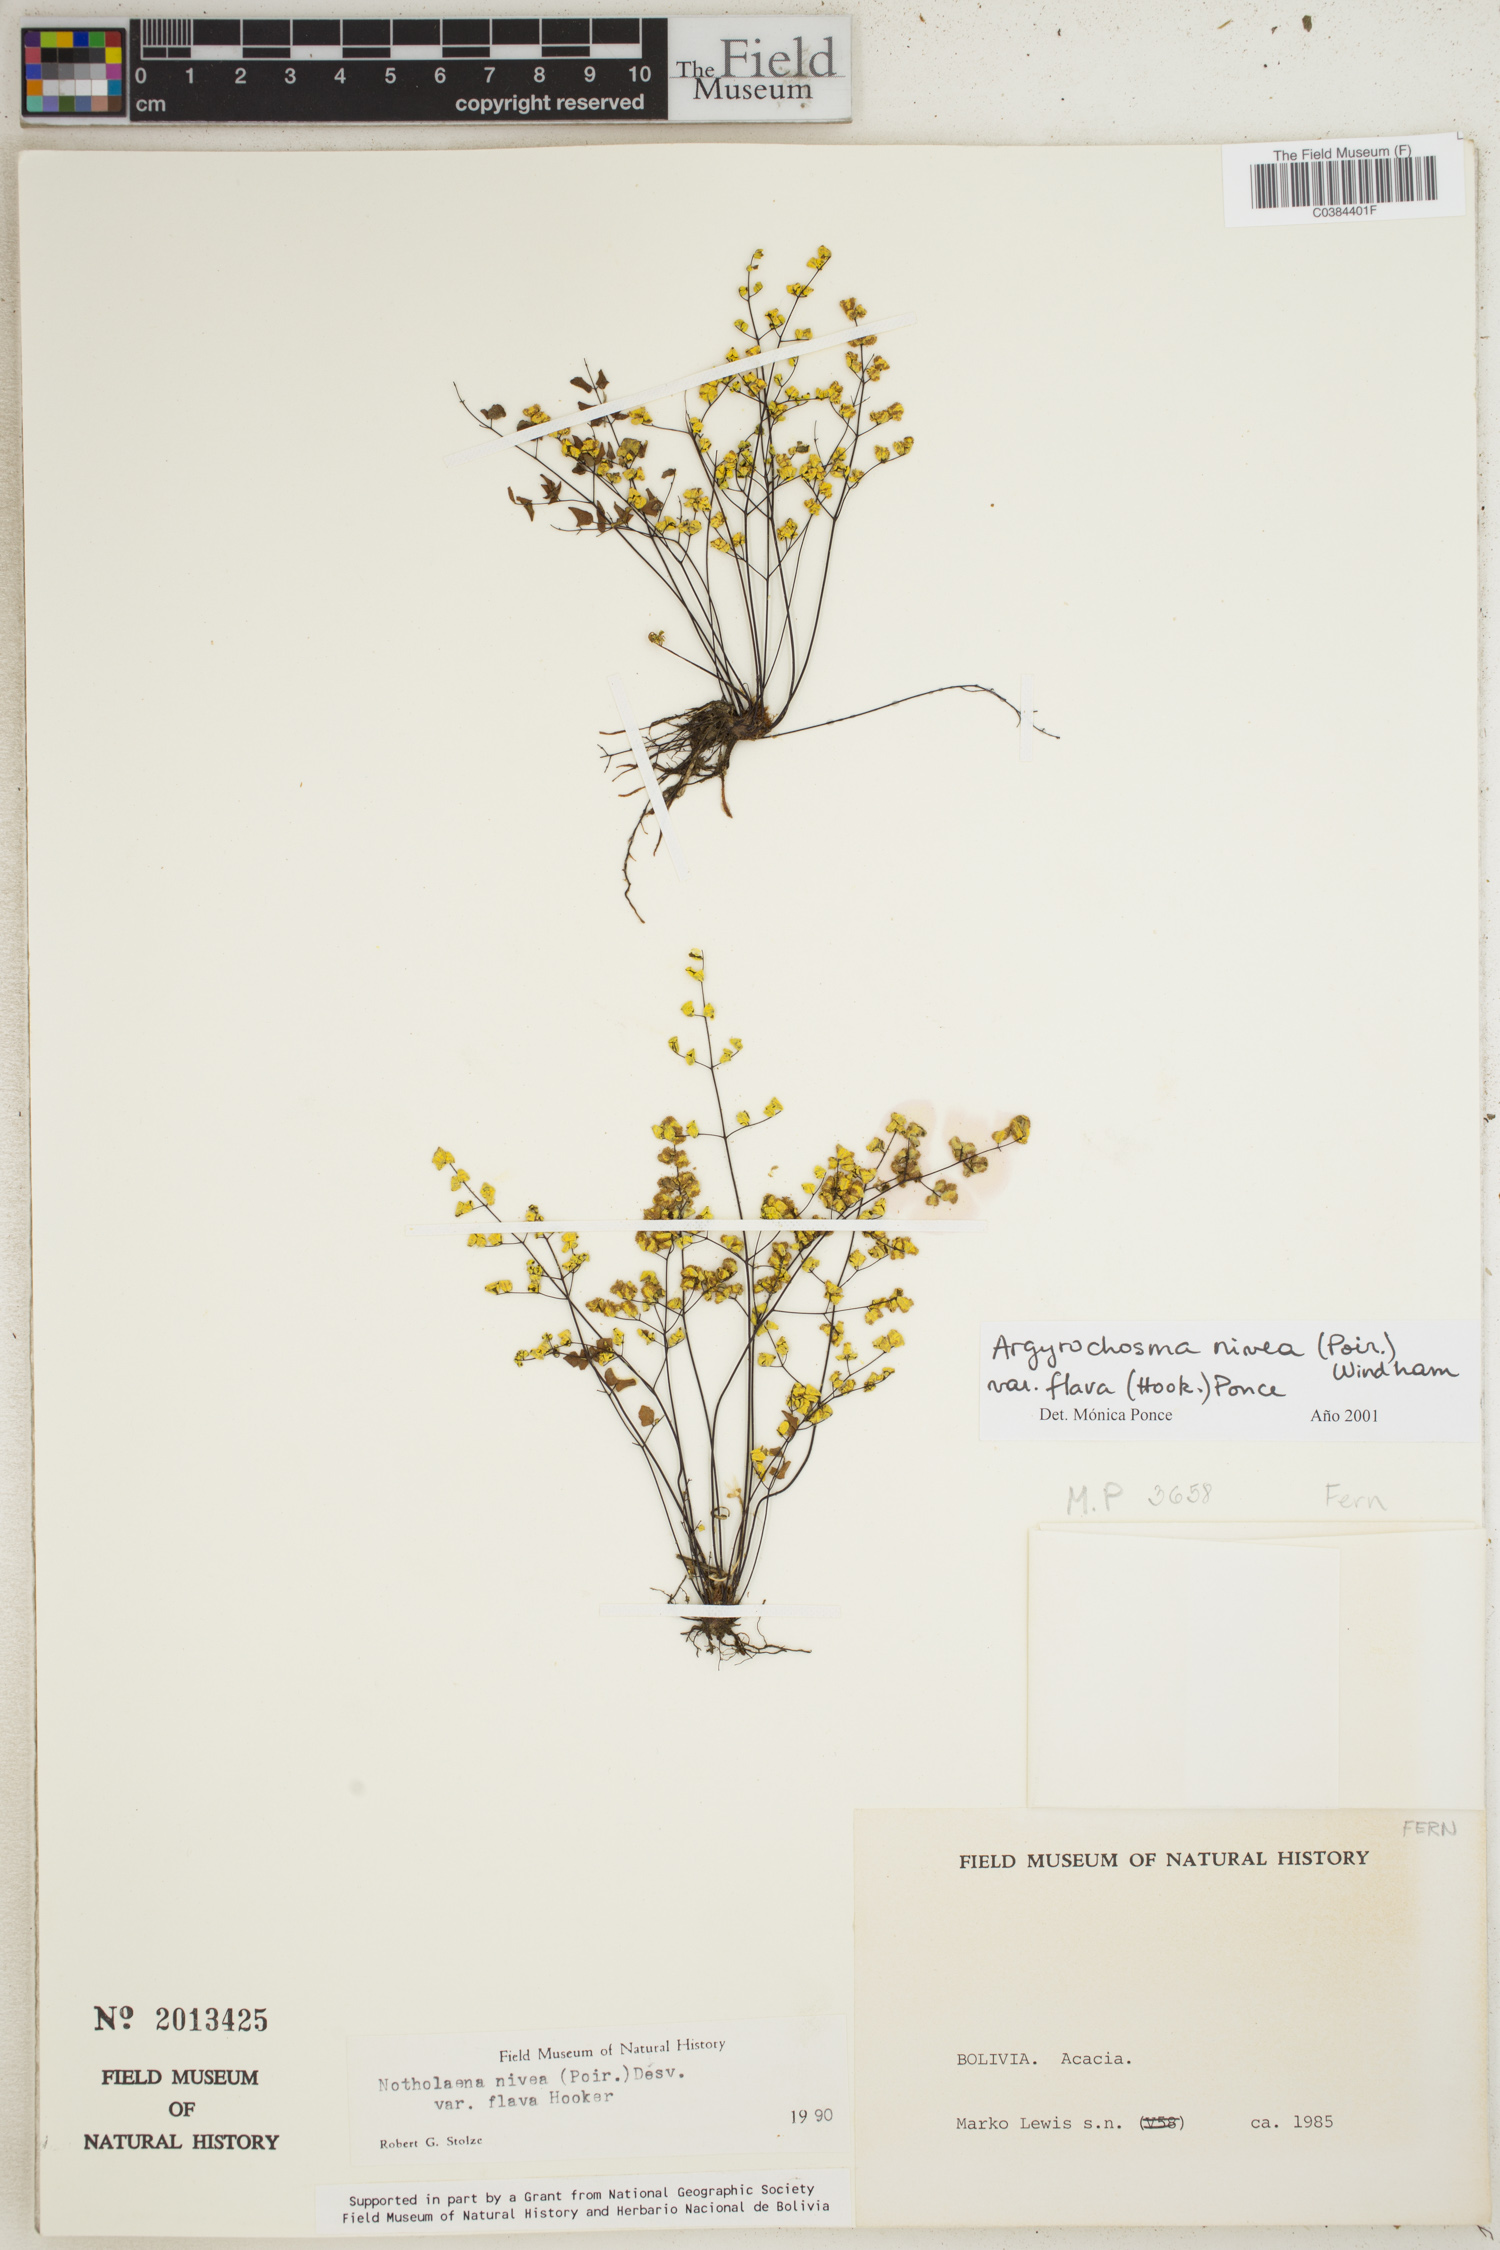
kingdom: Plantae
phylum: Tracheophyta
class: Polypodiopsida
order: Polypodiales
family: Pteridaceae
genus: Argyrochosma
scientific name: Argyrochosma flava
